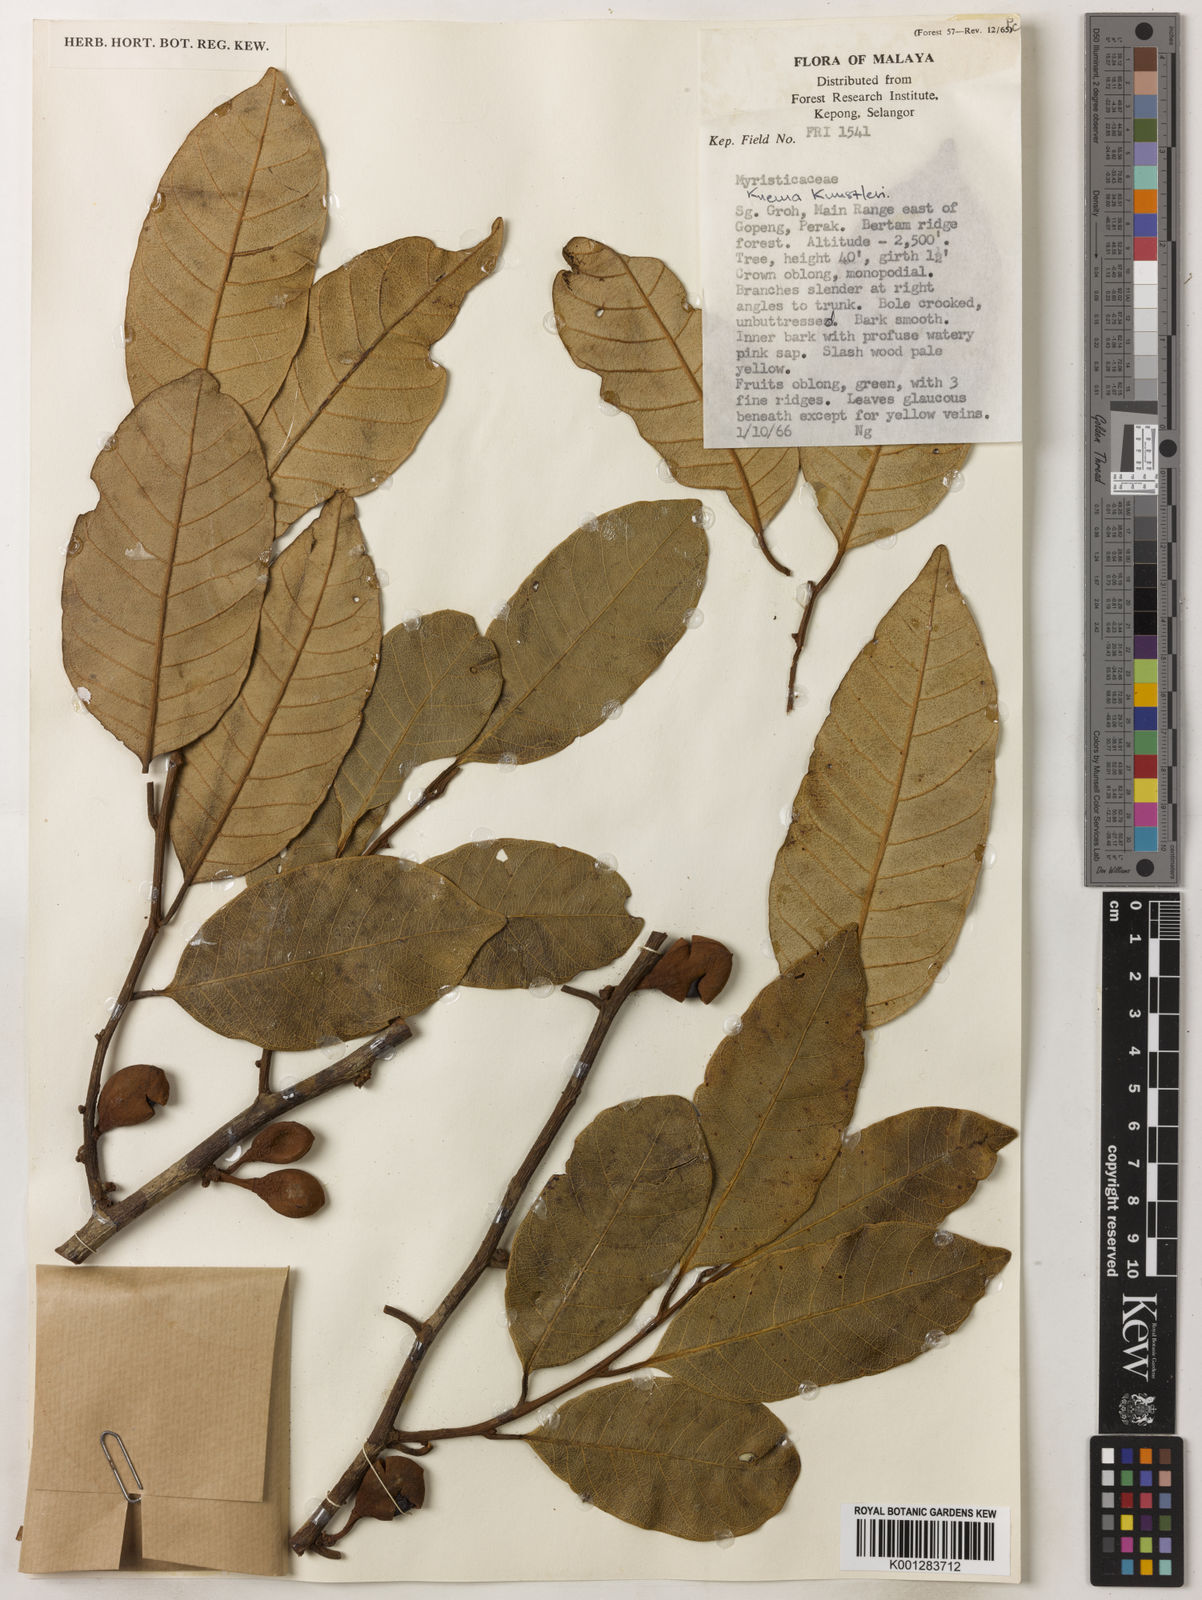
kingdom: Plantae
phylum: Tracheophyta
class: Magnoliopsida
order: Magnoliales
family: Myristicaceae
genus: Knema
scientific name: Knema kunstleri
